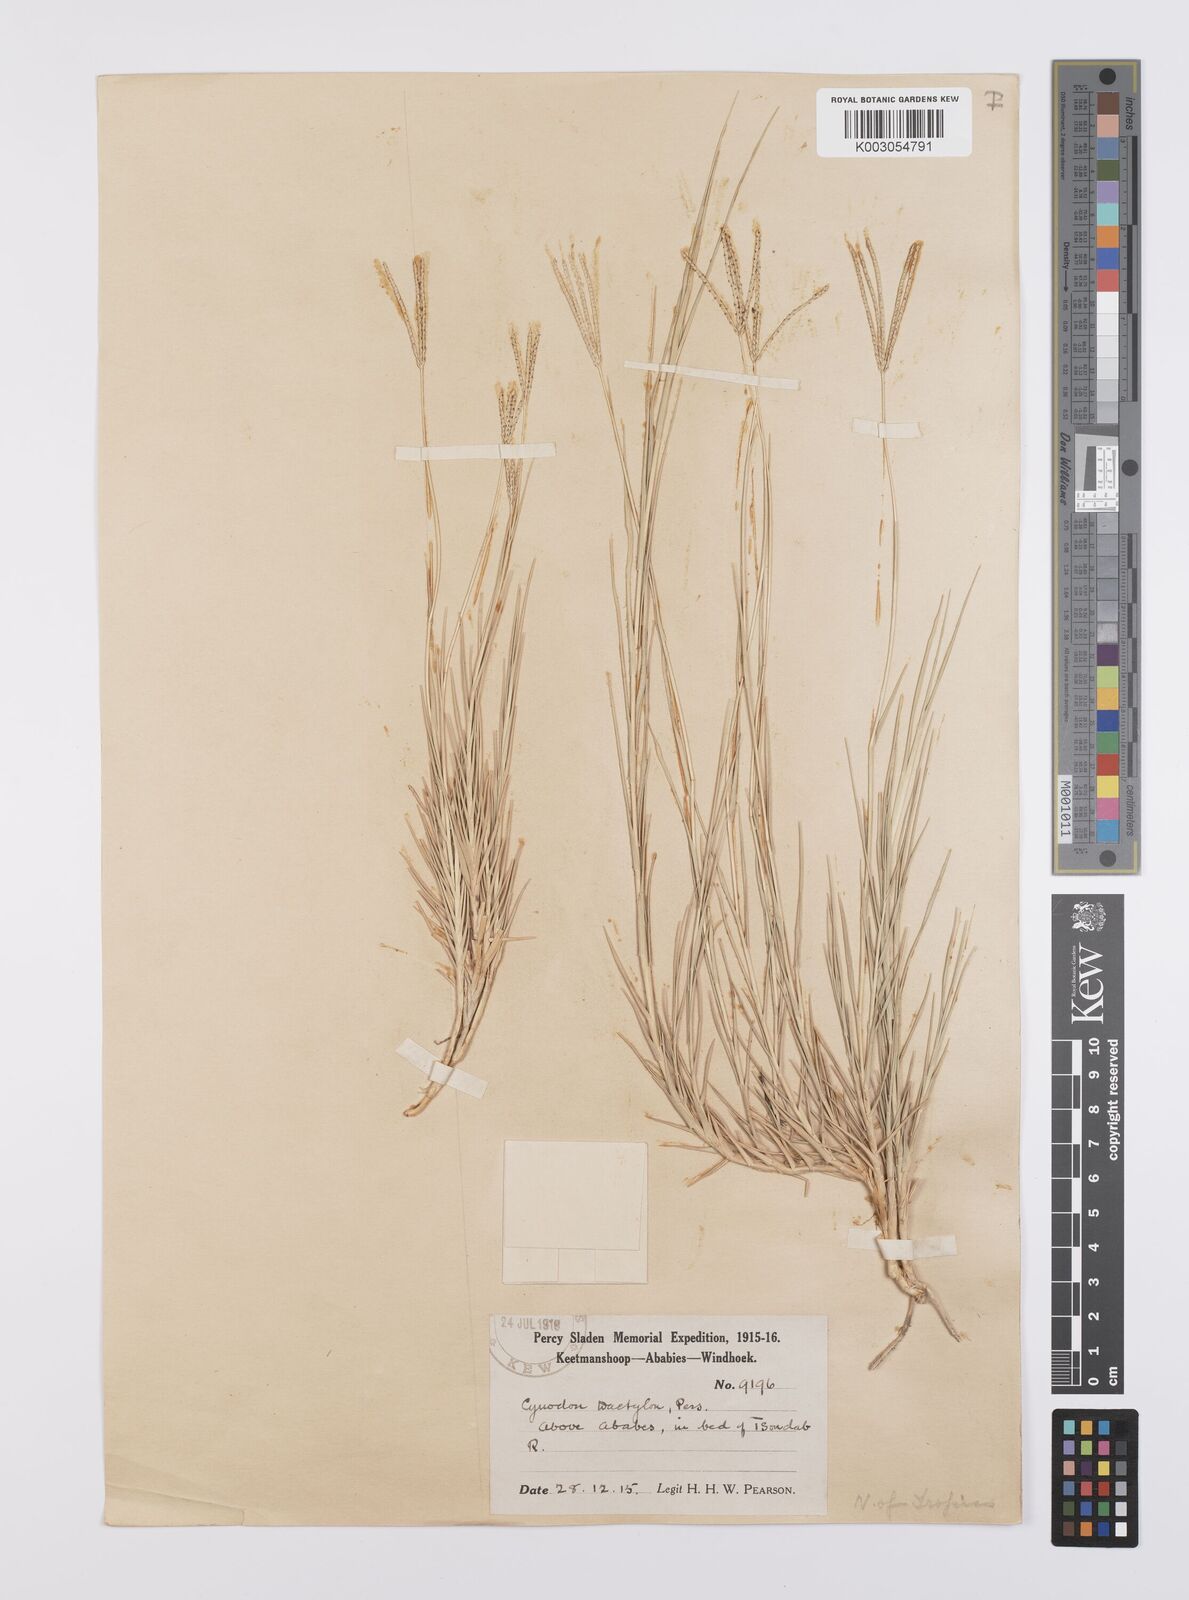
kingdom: Plantae
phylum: Tracheophyta
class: Liliopsida
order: Poales
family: Poaceae
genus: Cynodon
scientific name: Cynodon dactylon
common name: Bermuda grass
